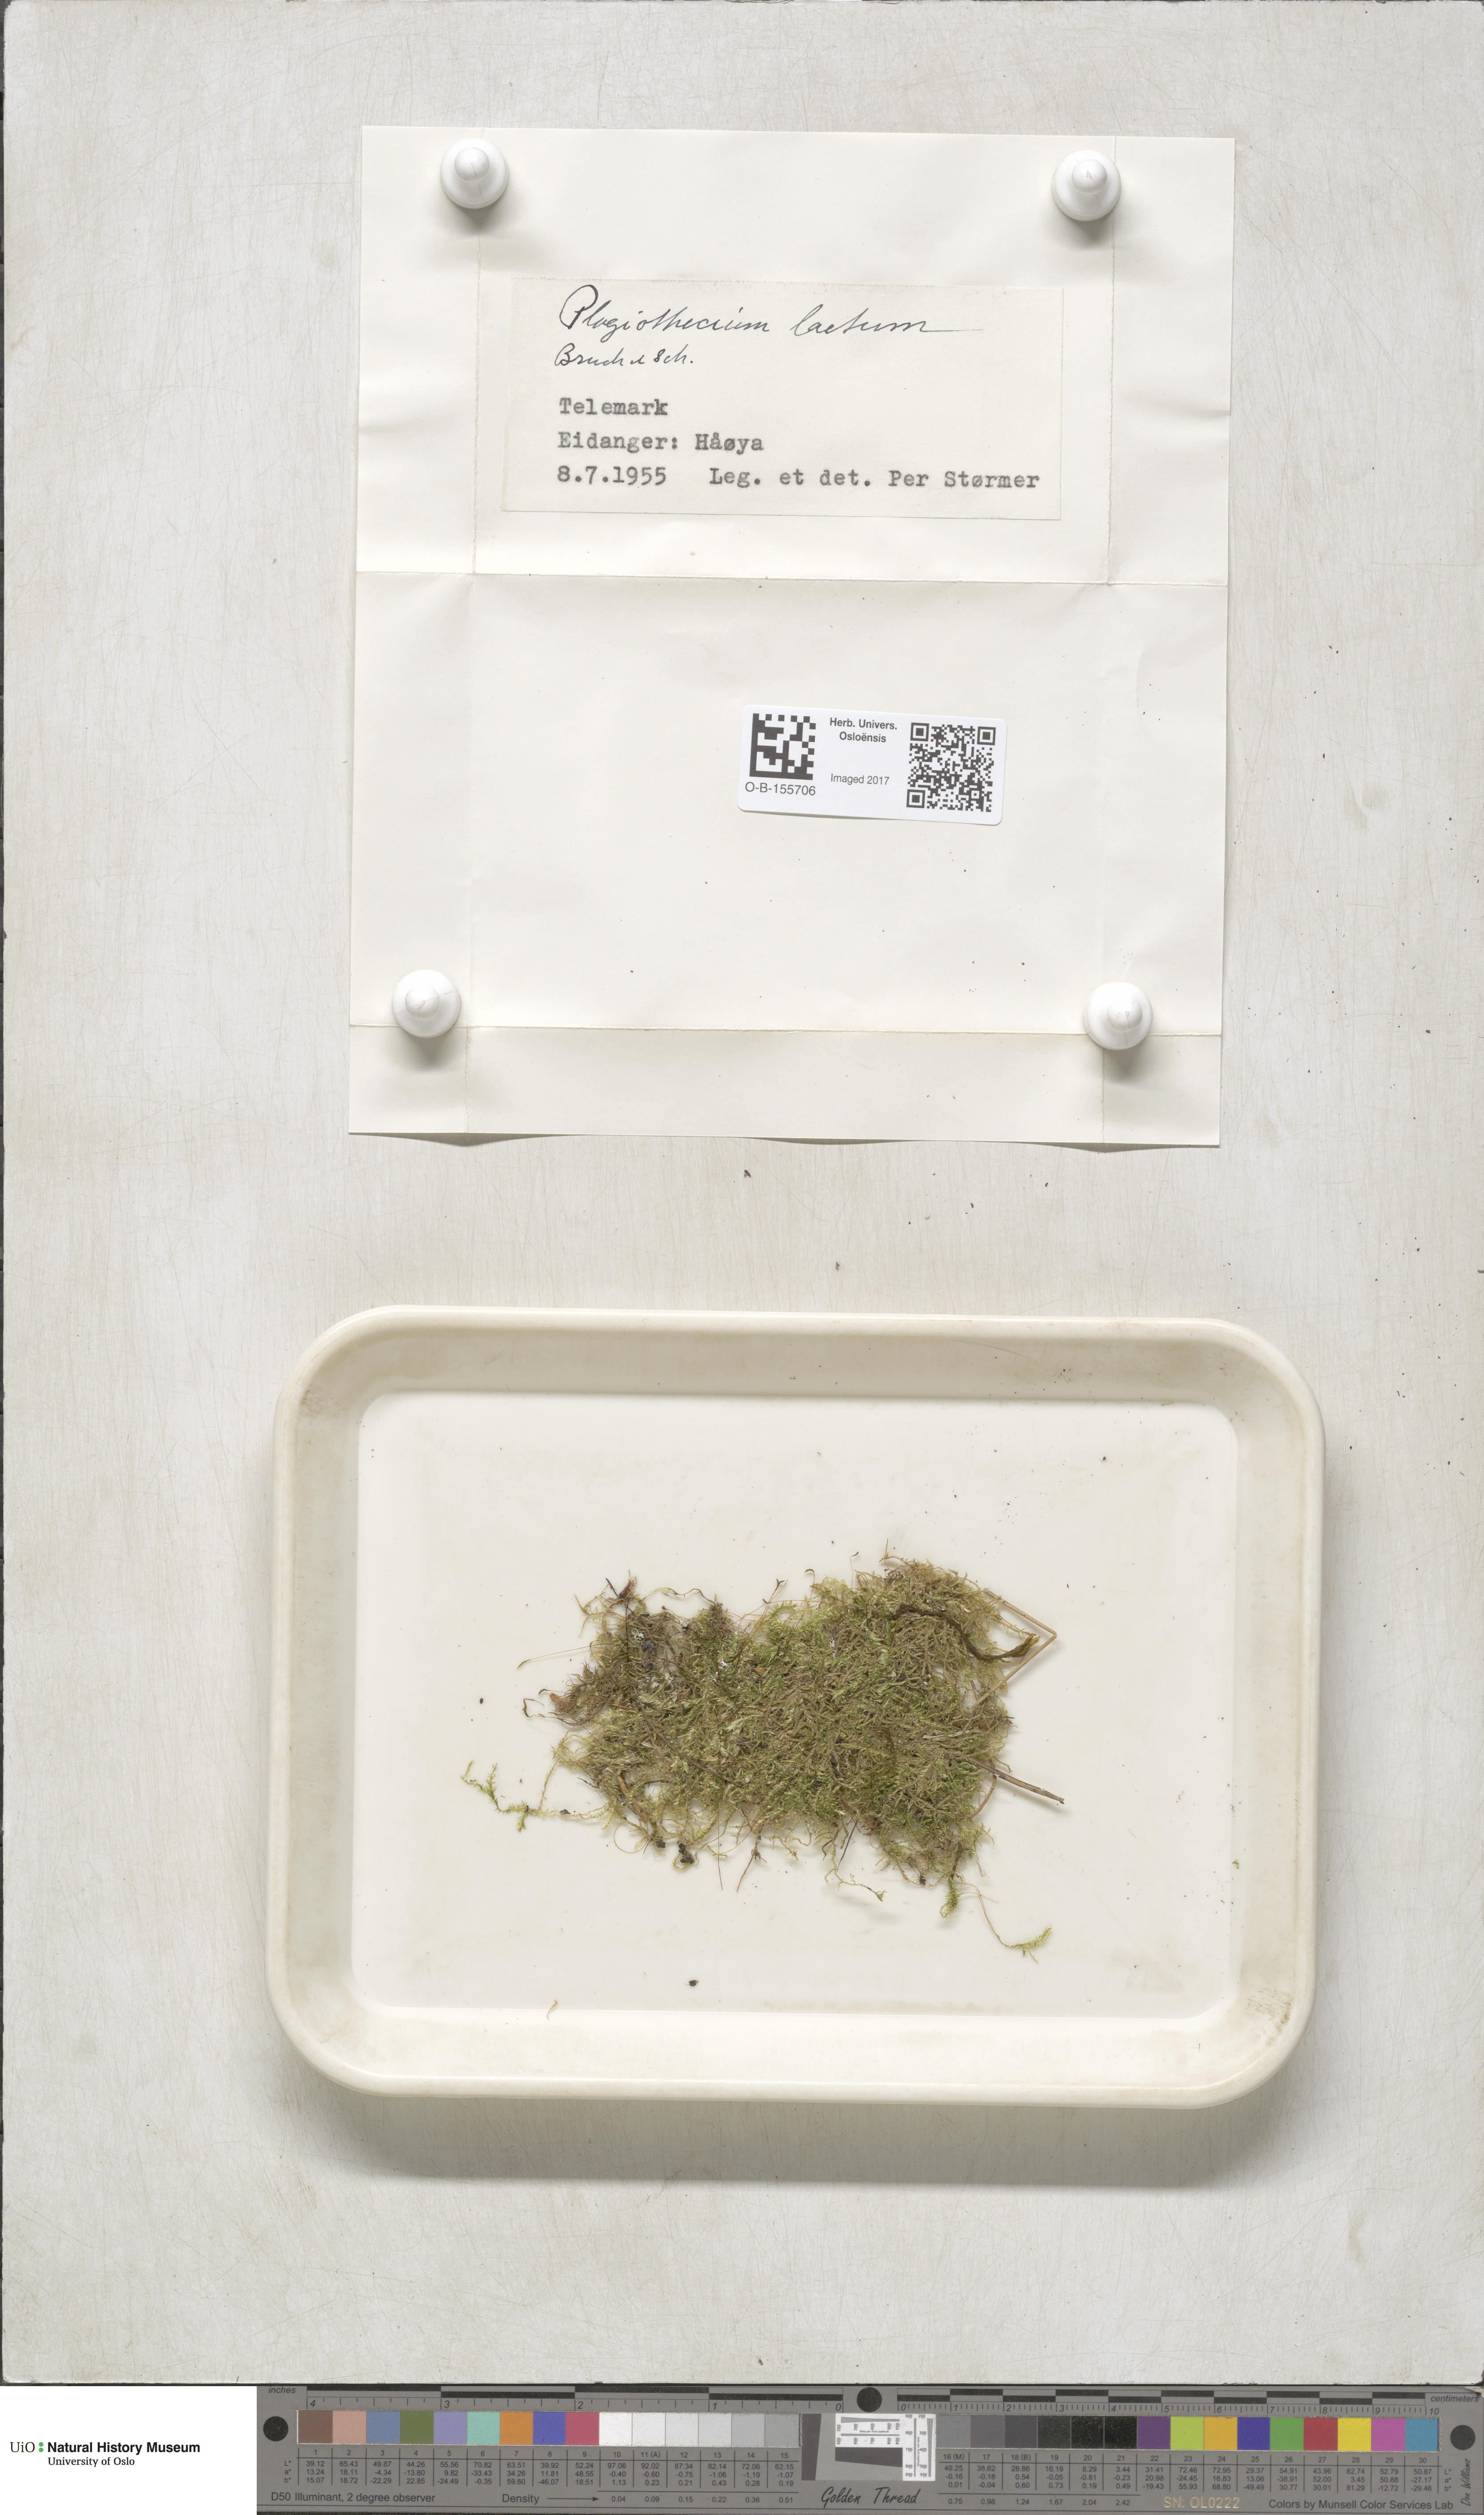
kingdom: Plantae
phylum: Bryophyta
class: Bryopsida
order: Hypnales
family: Plagiotheciaceae
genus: Plagiothecium
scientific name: Plagiothecium laetum
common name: Bright silk moss
